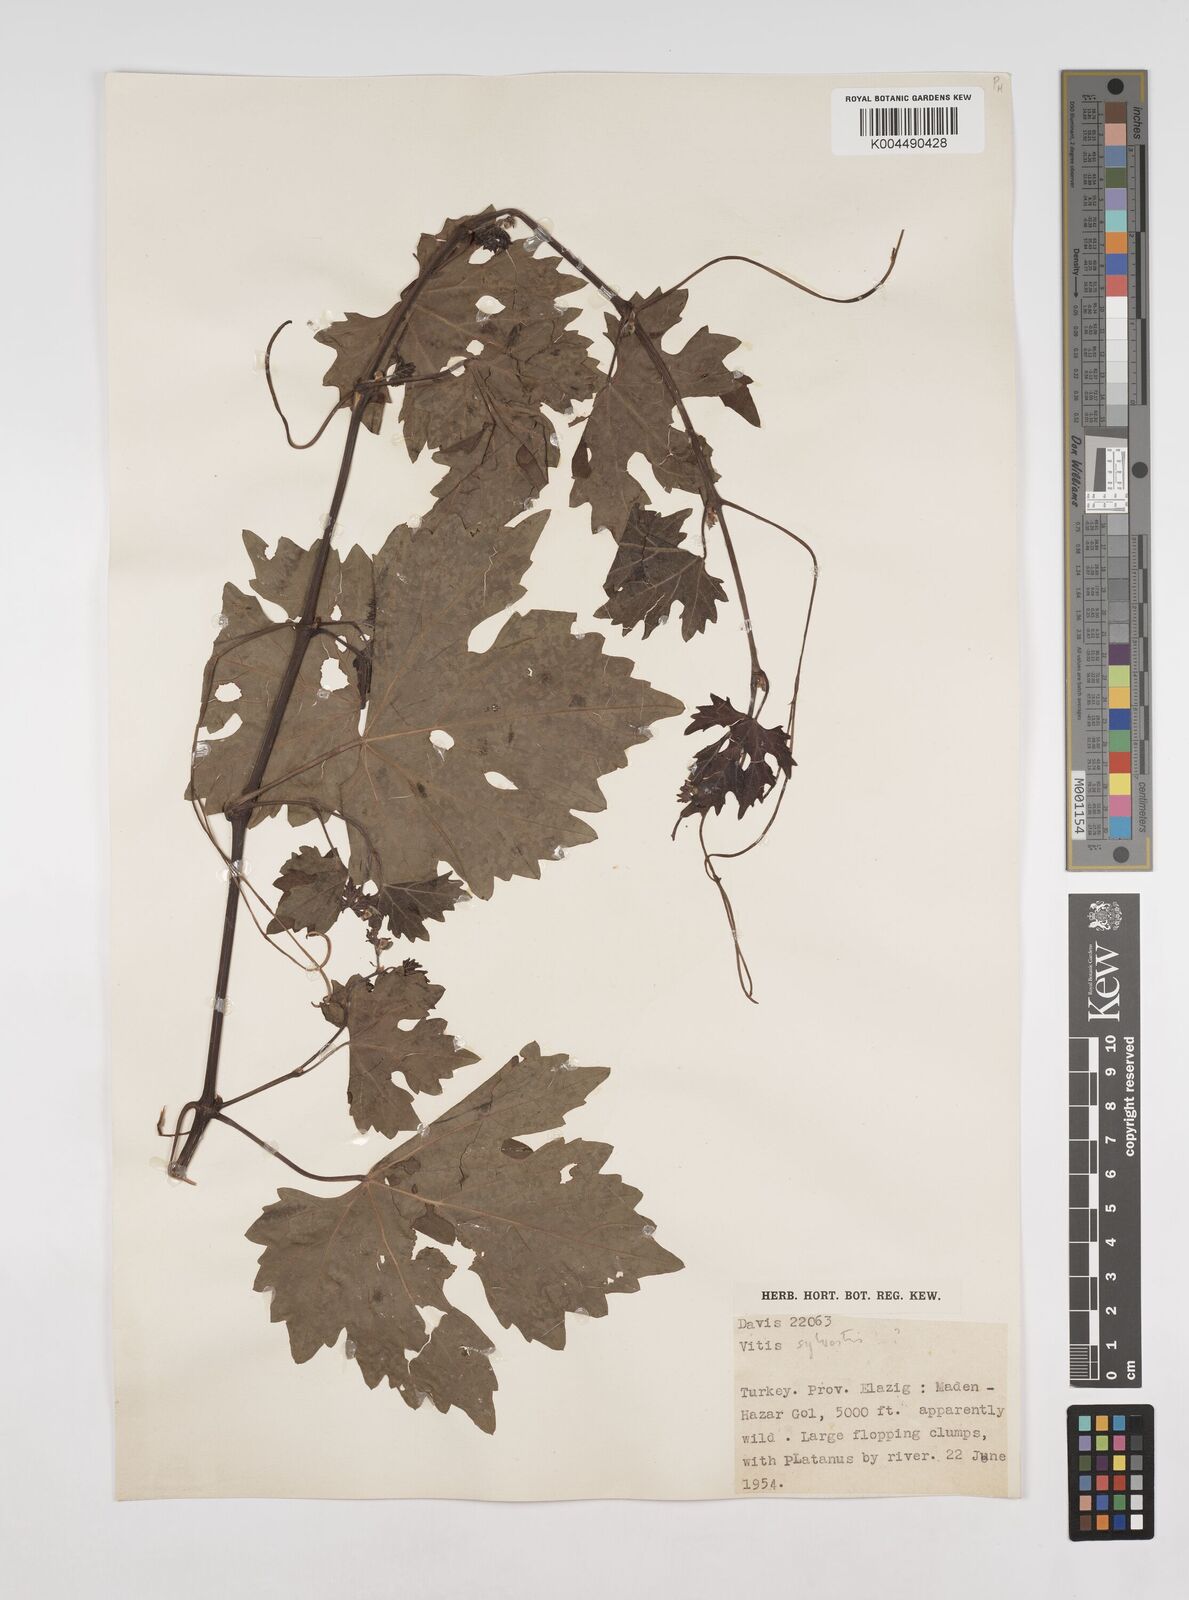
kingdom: Plantae
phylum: Tracheophyta
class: Magnoliopsida
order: Vitales
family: Vitaceae
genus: Vitis
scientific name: Vitis gmelinii
